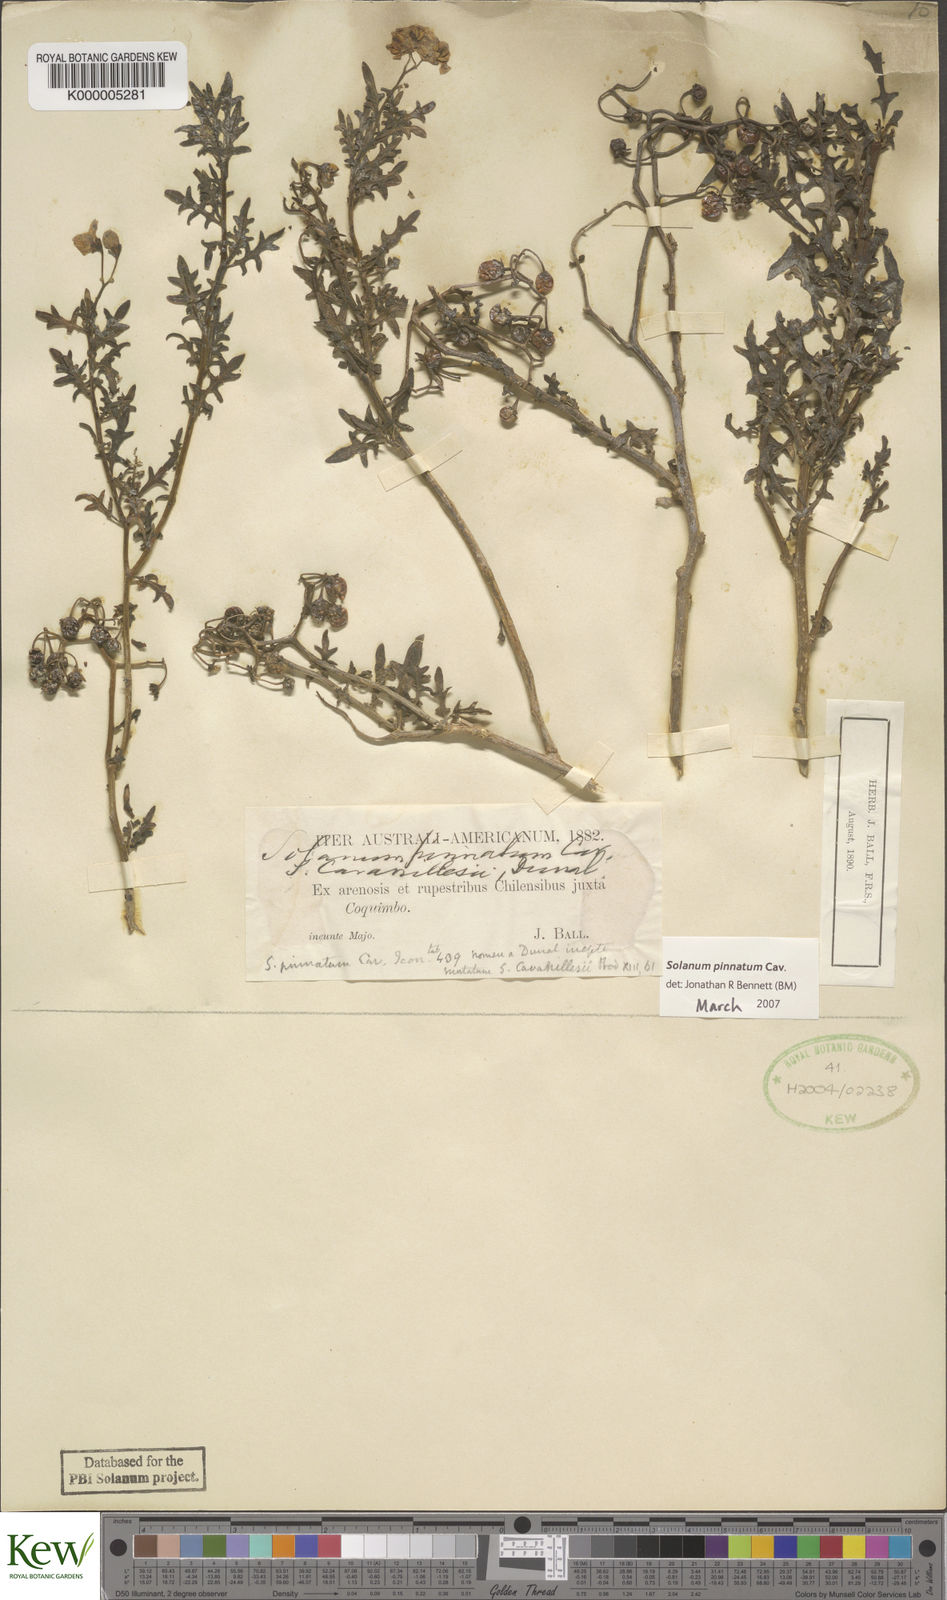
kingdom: Plantae
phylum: Tracheophyta
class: Magnoliopsida
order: Solanales
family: Solanaceae
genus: Solanum
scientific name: Solanum pinnatum
